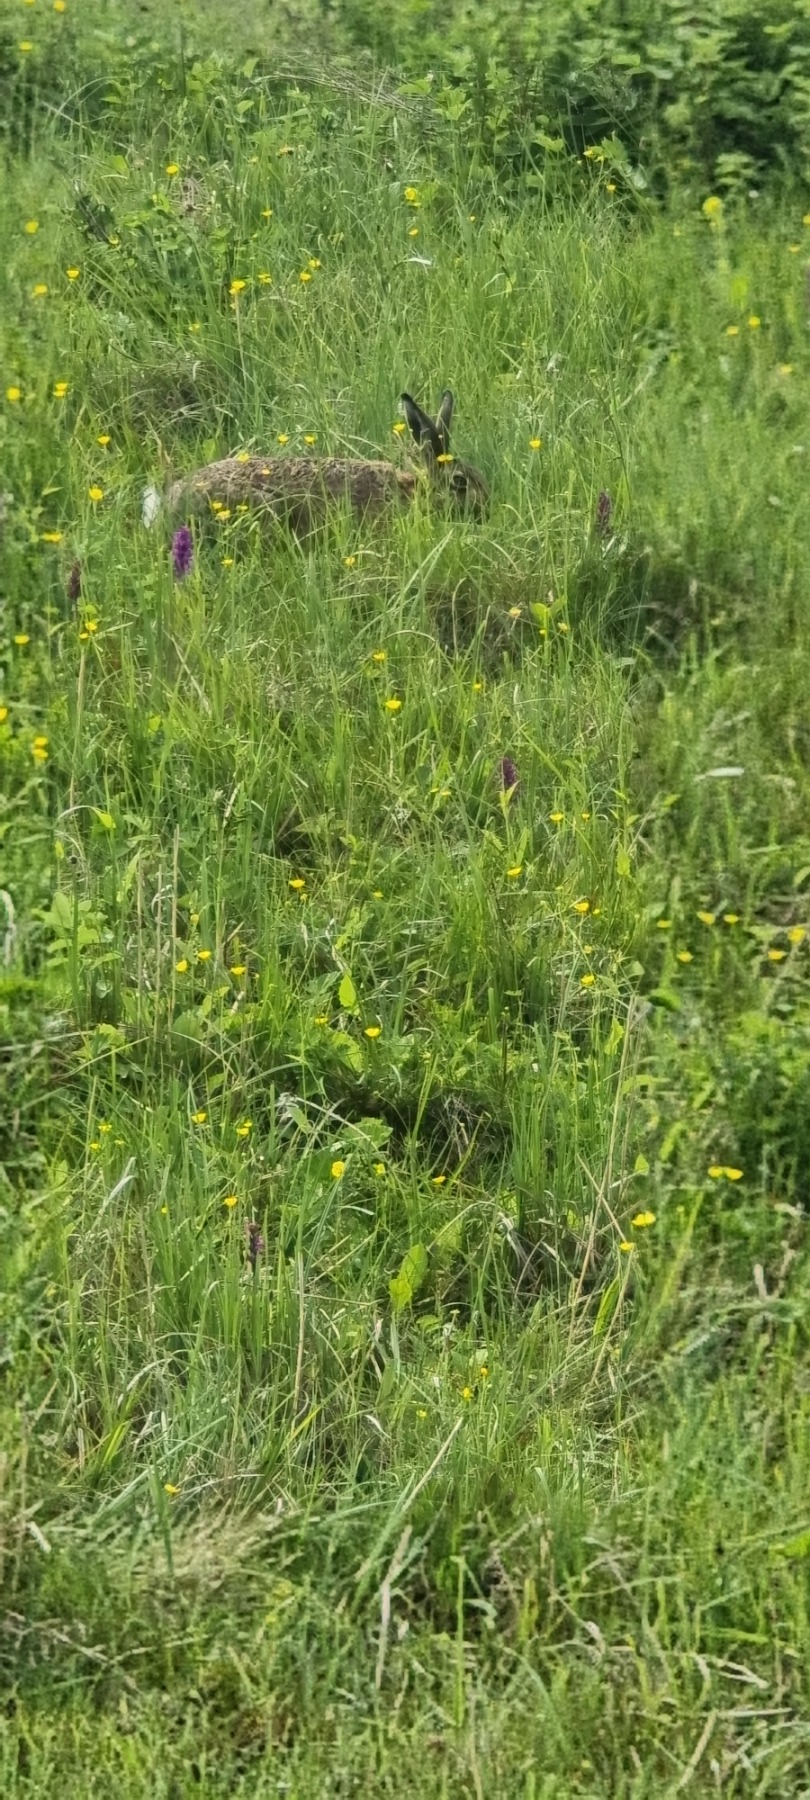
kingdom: Animalia
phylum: Chordata
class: Mammalia
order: Lagomorpha
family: Leporidae
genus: Lepus
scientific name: Lepus europaeus
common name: Hare
